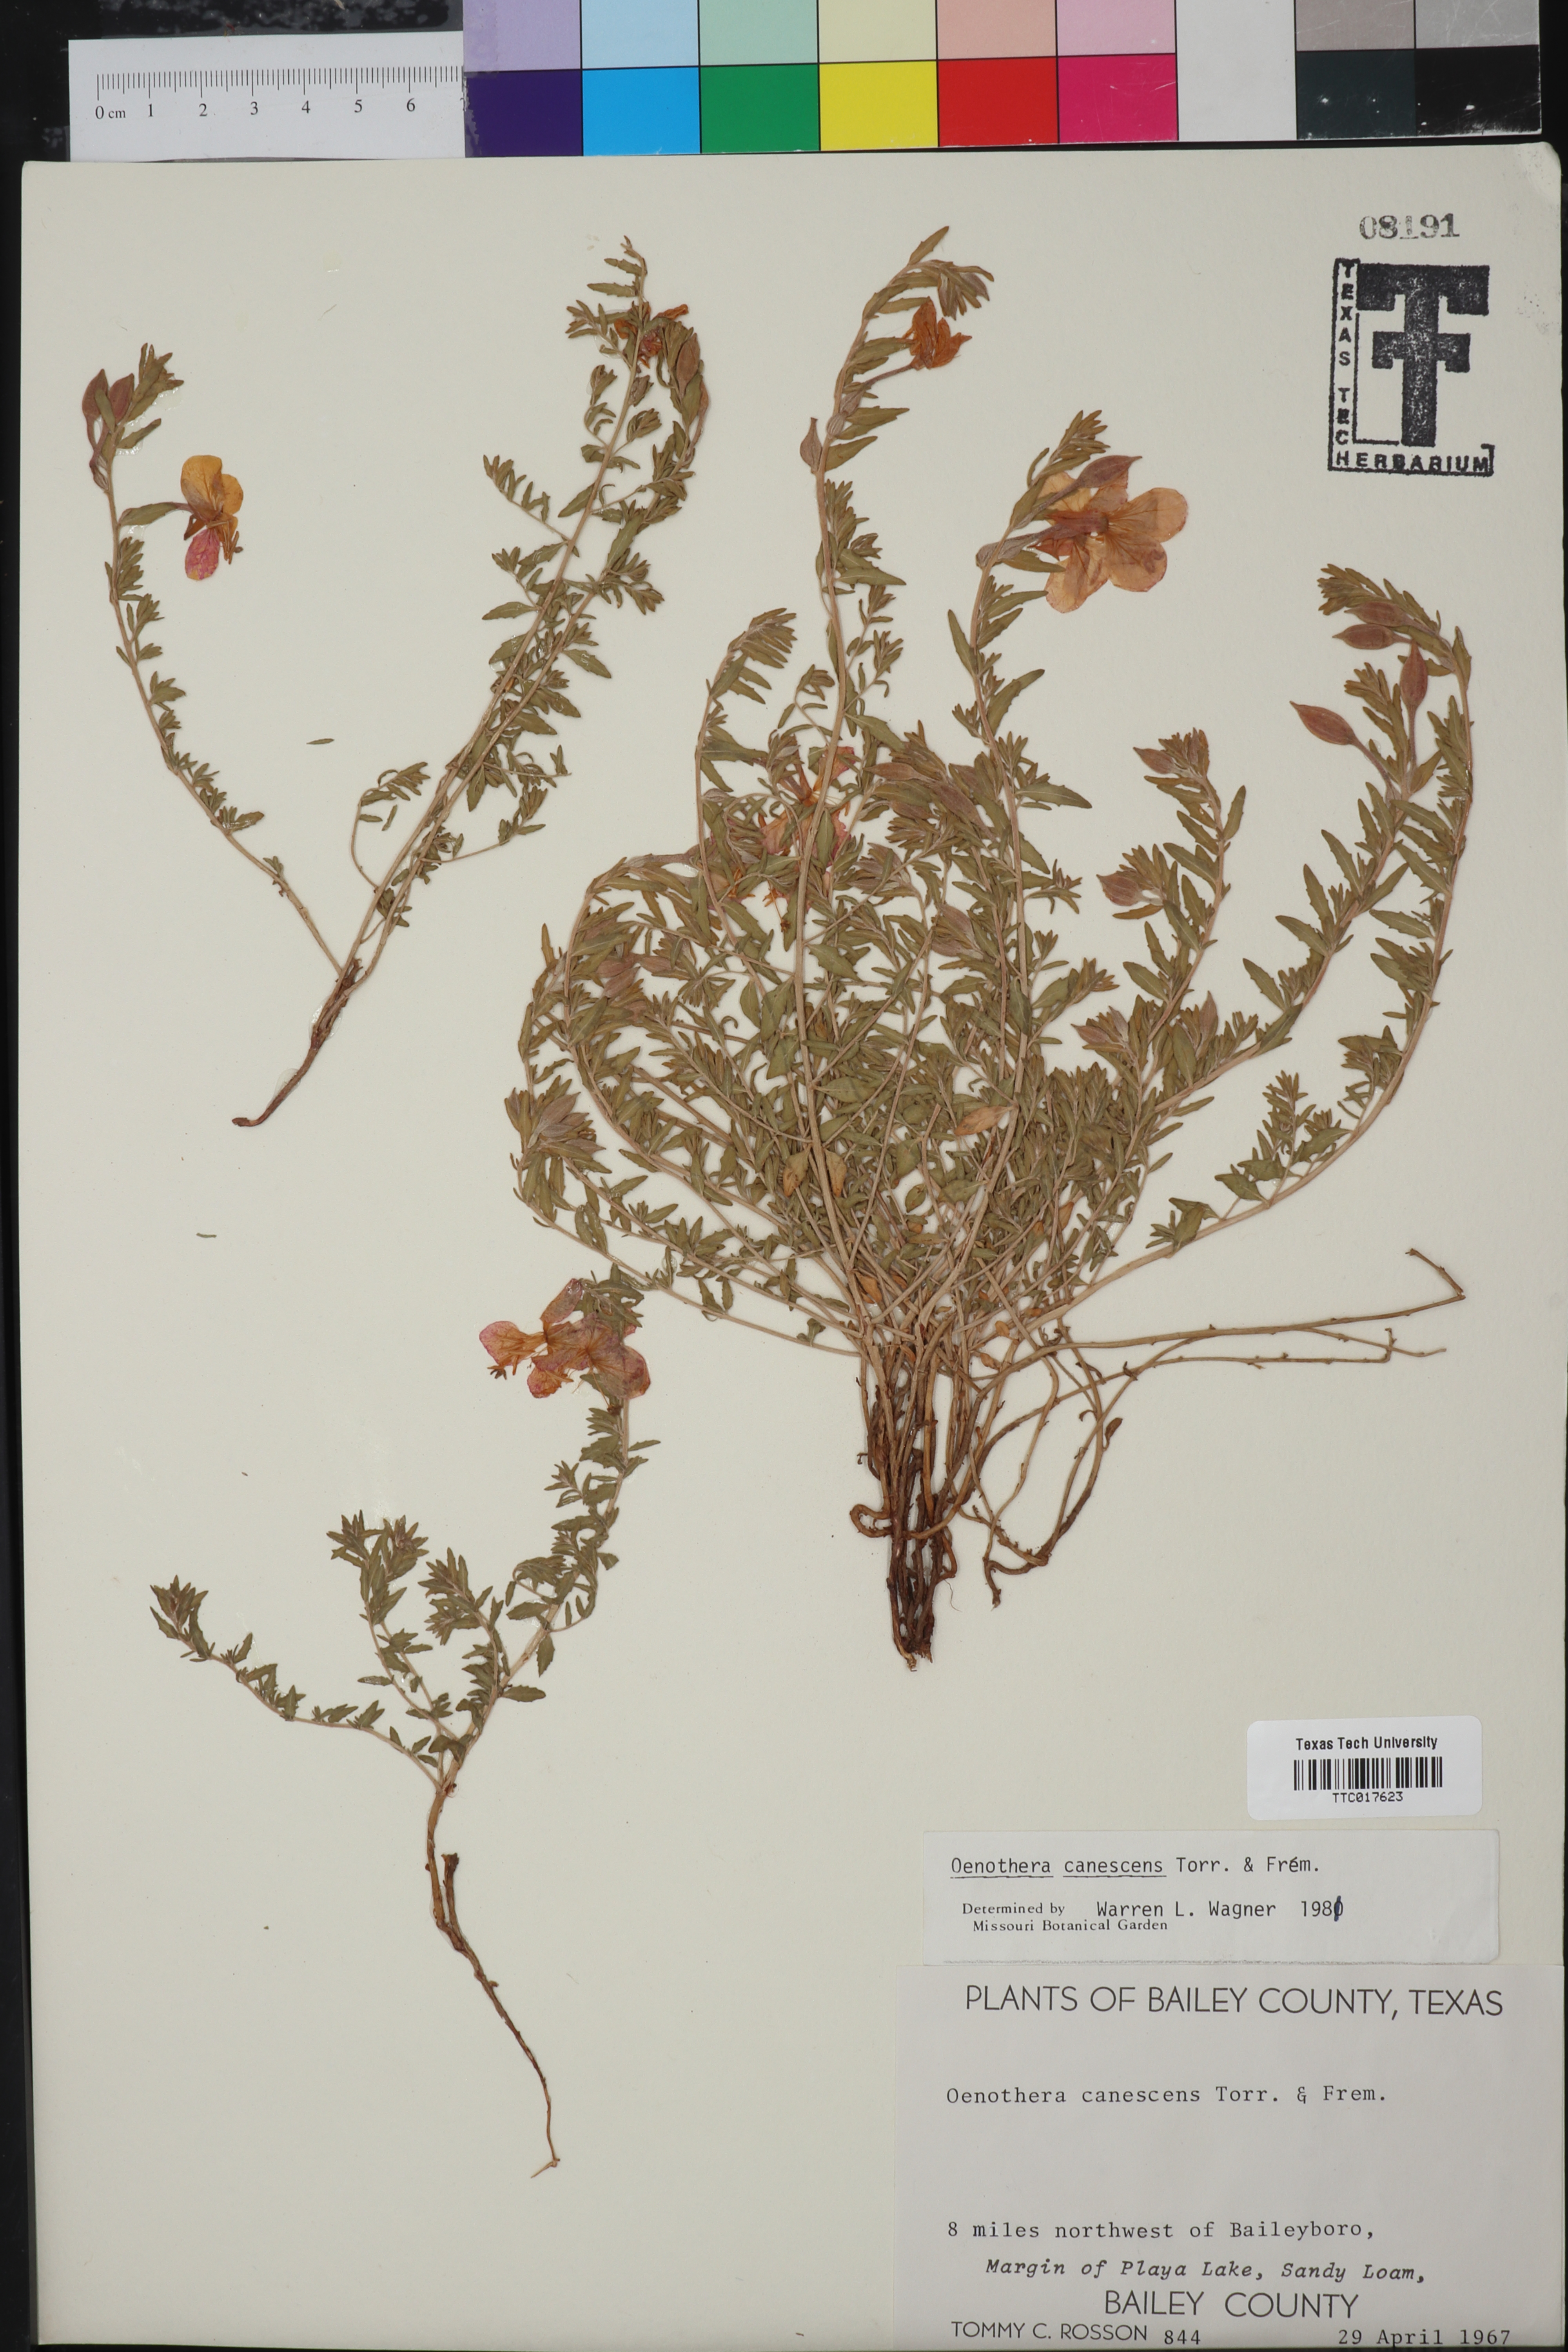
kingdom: Plantae
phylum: Tracheophyta
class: Magnoliopsida
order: Myrtales
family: Onagraceae
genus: Oenothera
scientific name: Oenothera canescens
